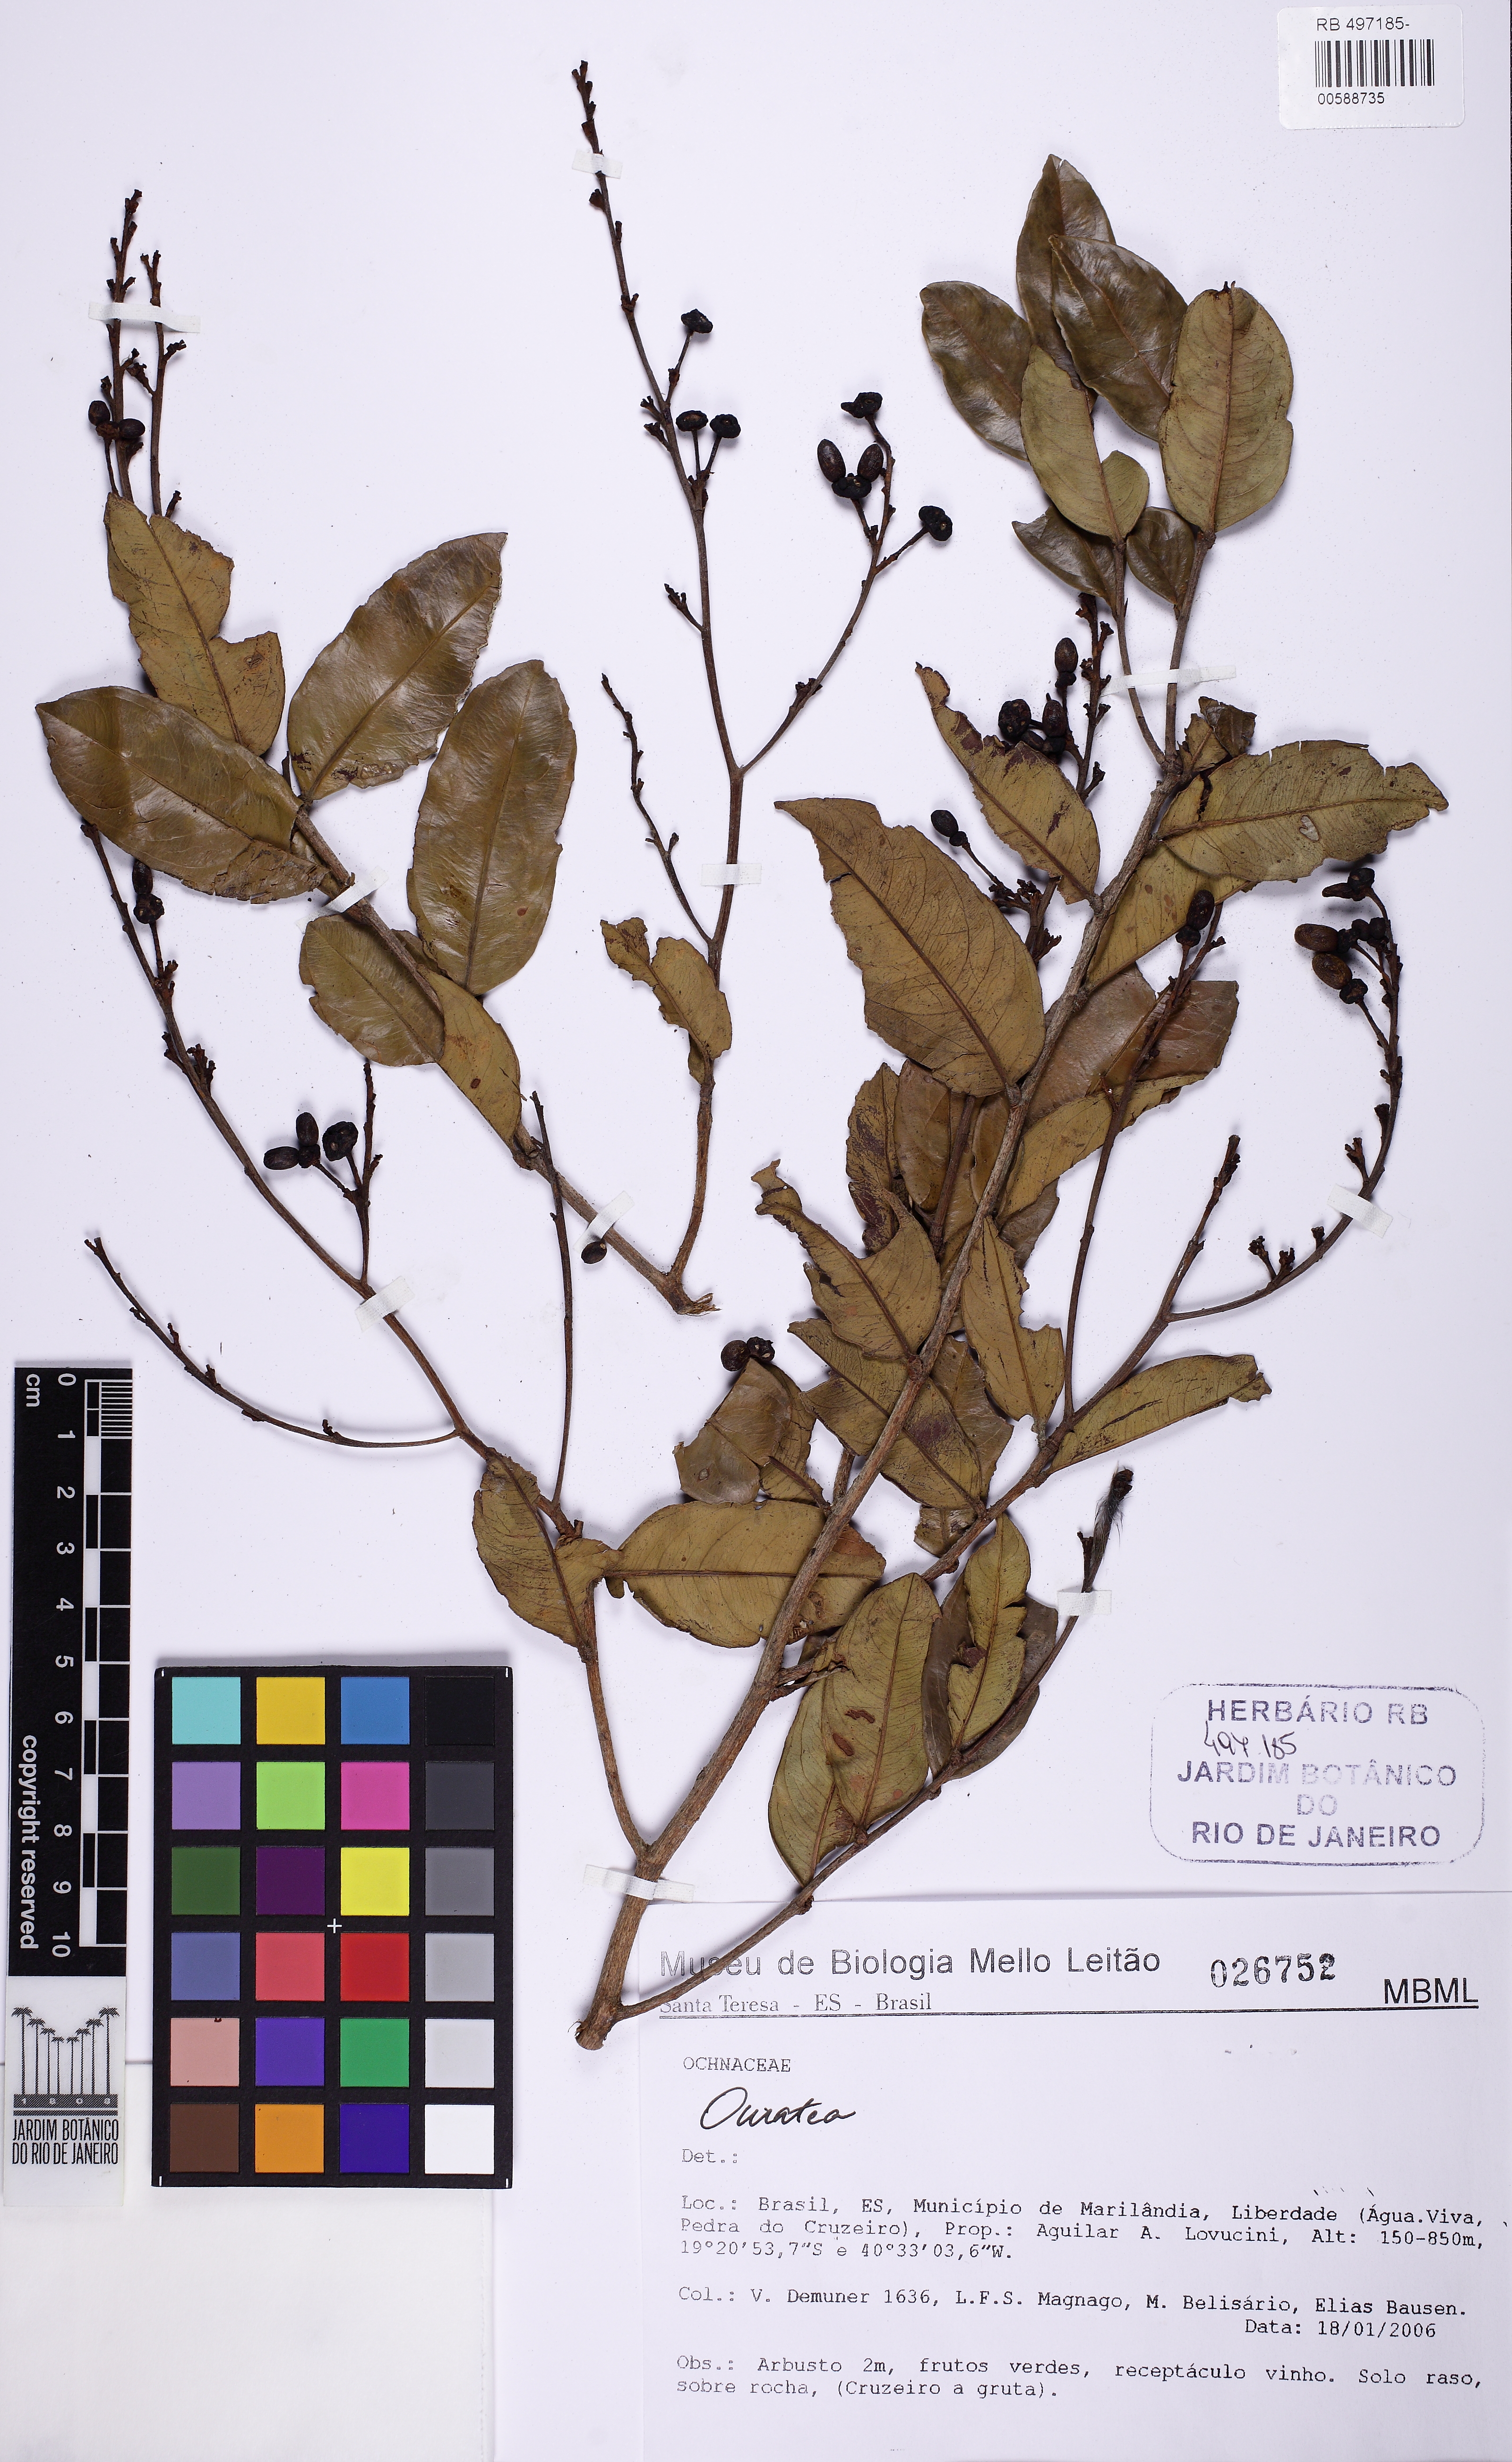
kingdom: Plantae
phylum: Tracheophyta
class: Magnoliopsida
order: Malpighiales
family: Ochnaceae
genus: Ouratea
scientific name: Ouratea
